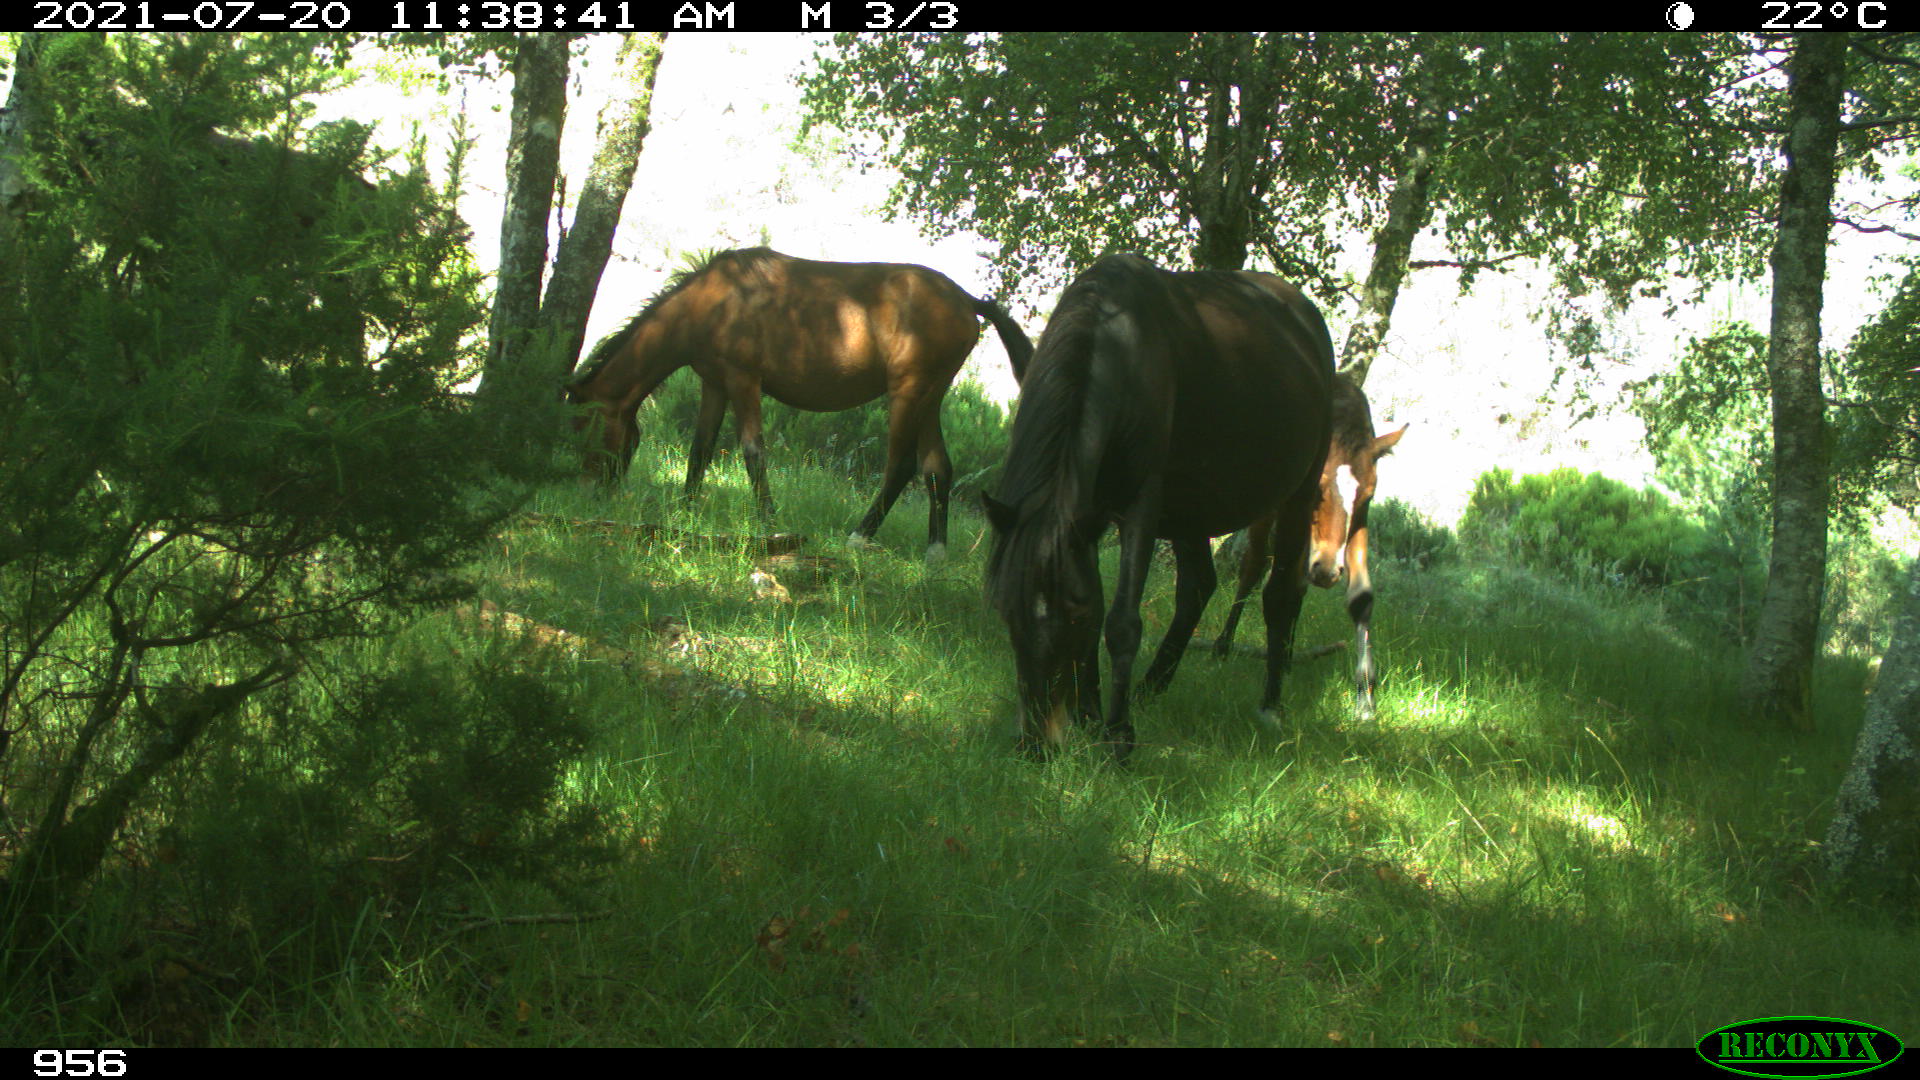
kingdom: Animalia
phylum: Chordata
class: Mammalia
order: Perissodactyla
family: Equidae
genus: Equus
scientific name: Equus caballus
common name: Horse
